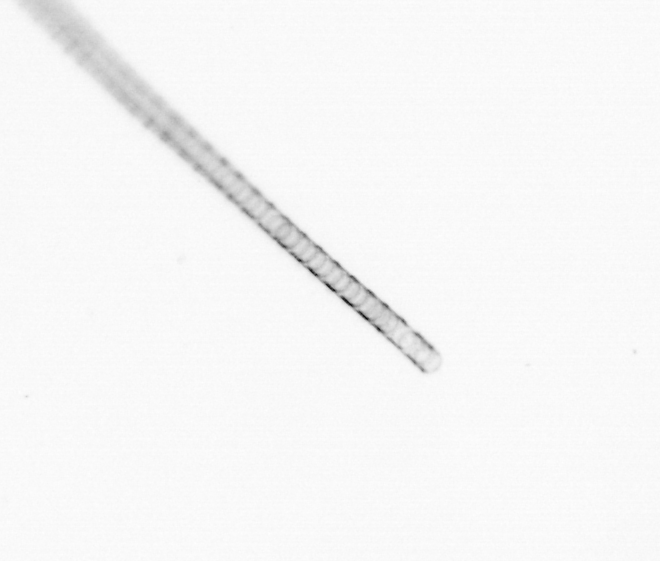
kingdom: Chromista
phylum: Ochrophyta
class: Bacillariophyceae
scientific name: Bacillariophyceae
